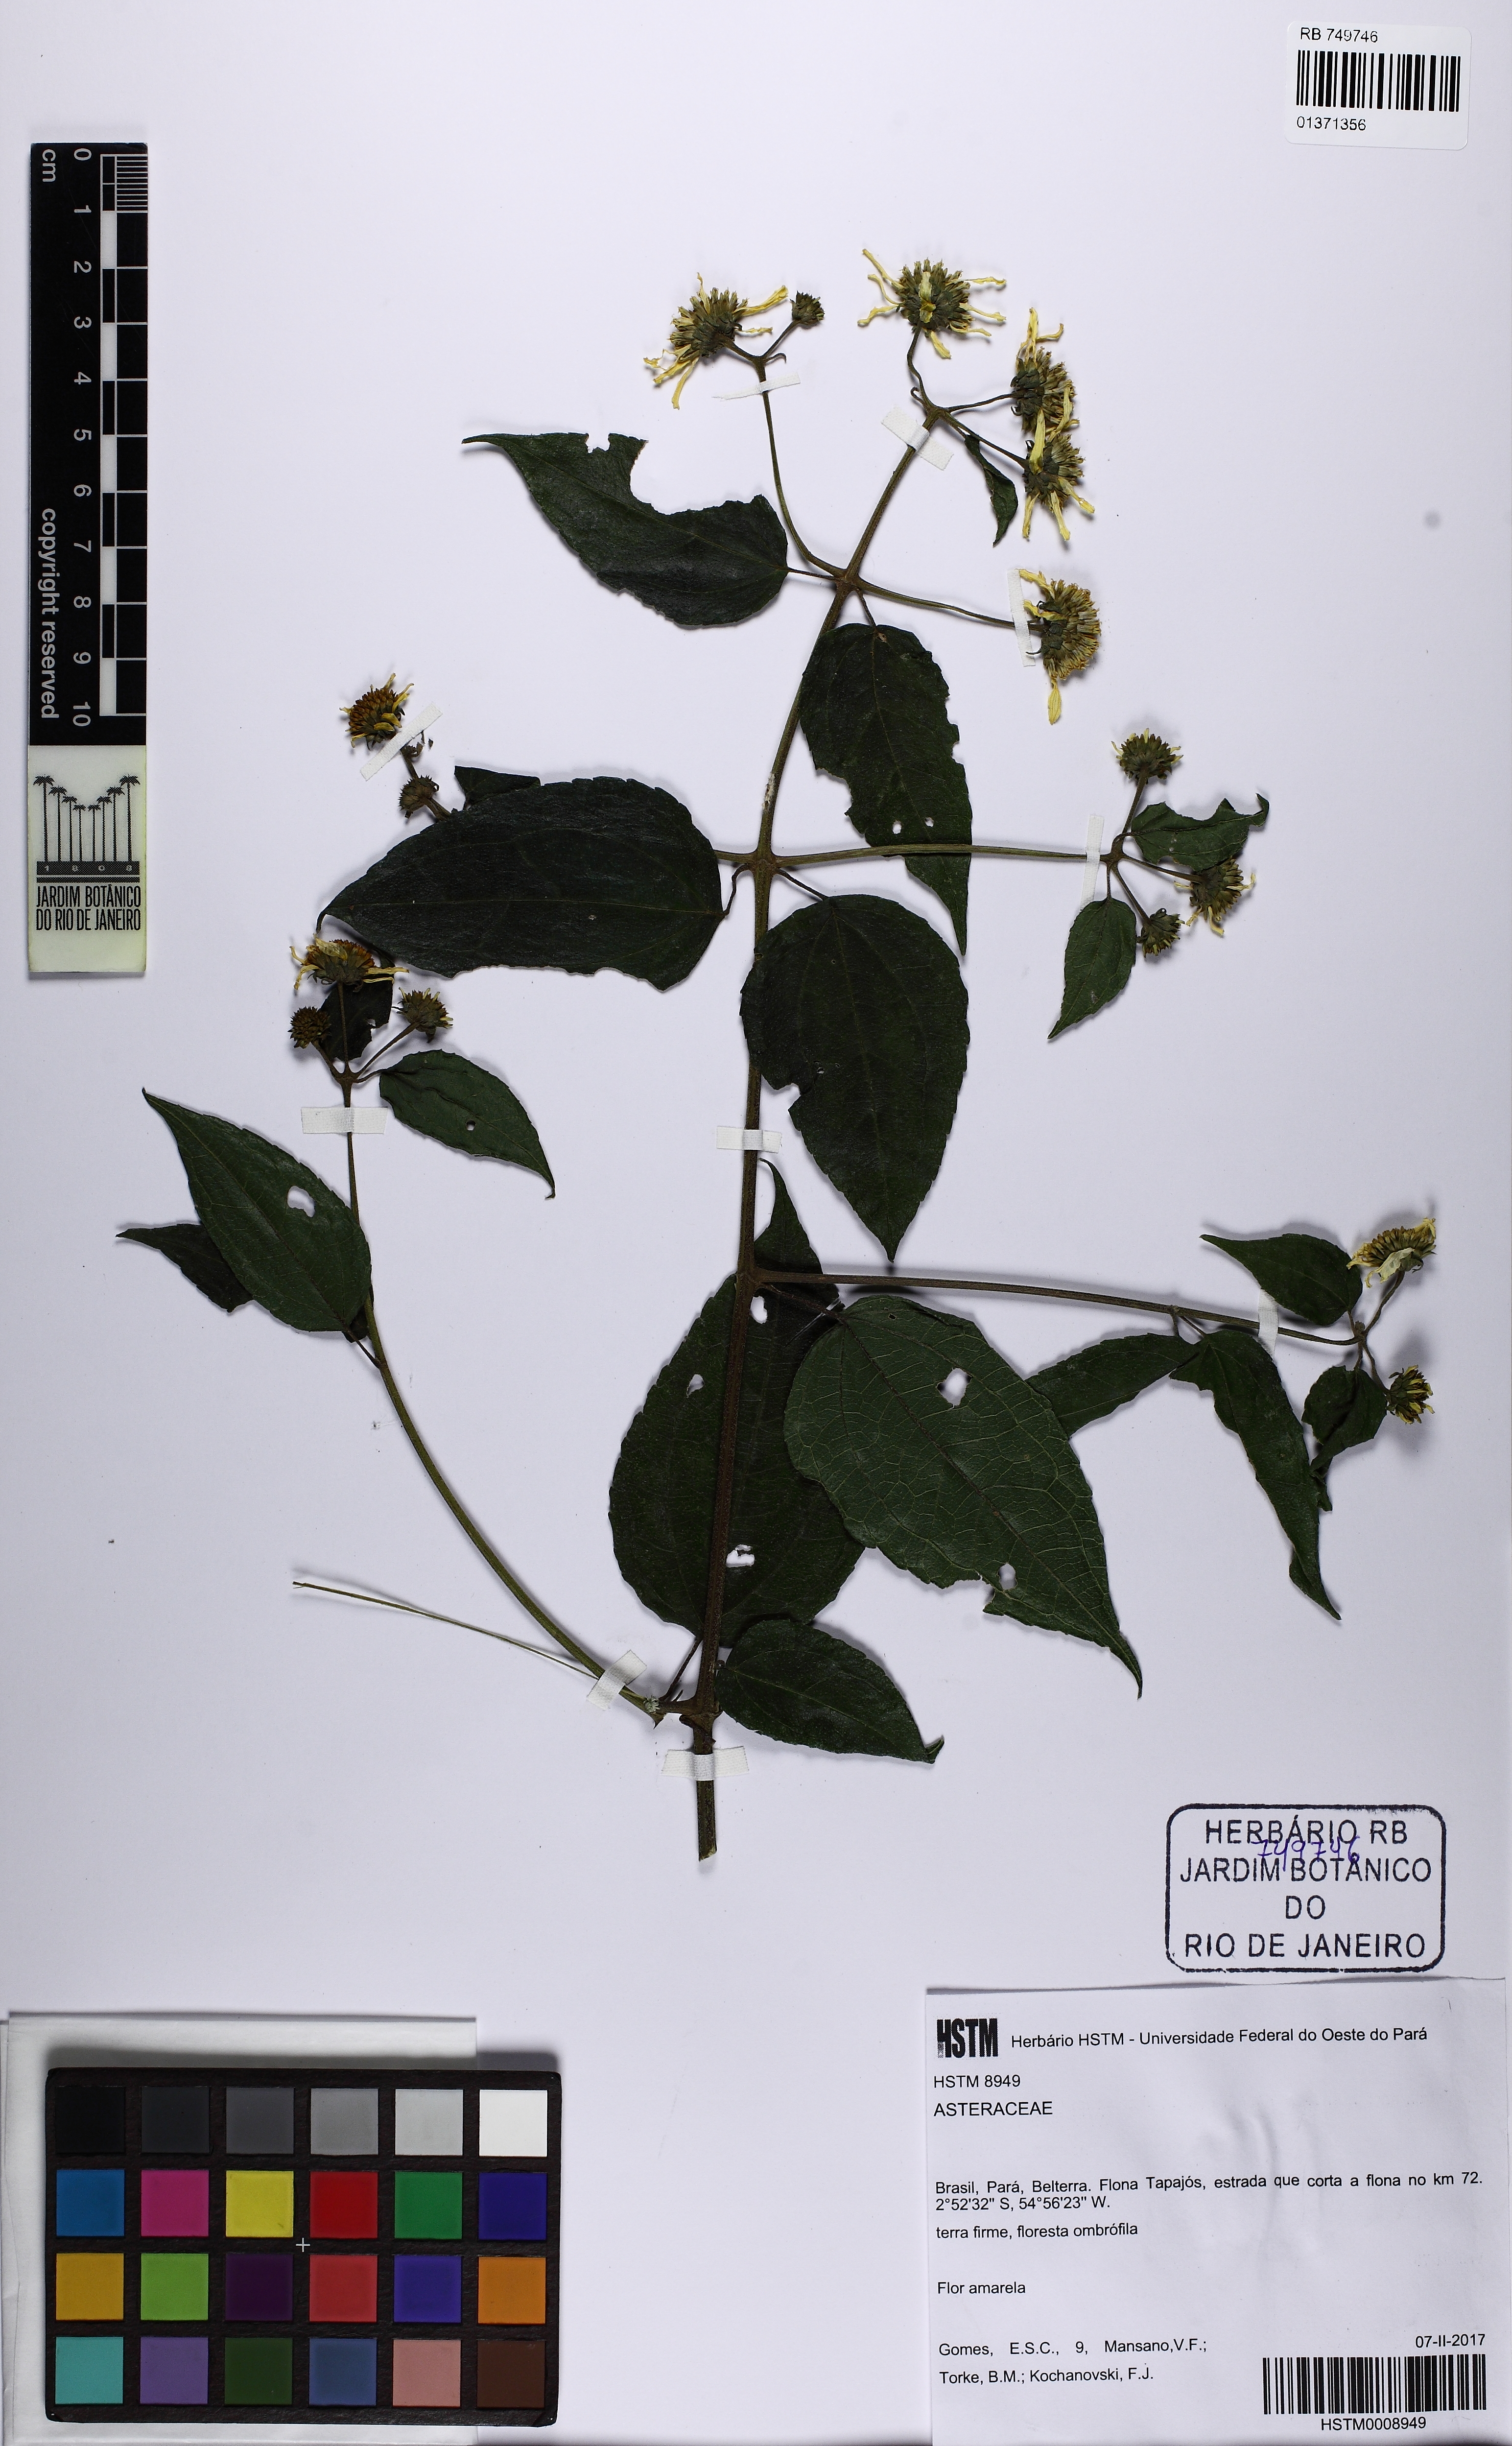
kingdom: Plantae
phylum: Tracheophyta
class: Magnoliopsida
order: Asterales
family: Asteraceae
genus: Tilesia
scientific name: Tilesia baccata
